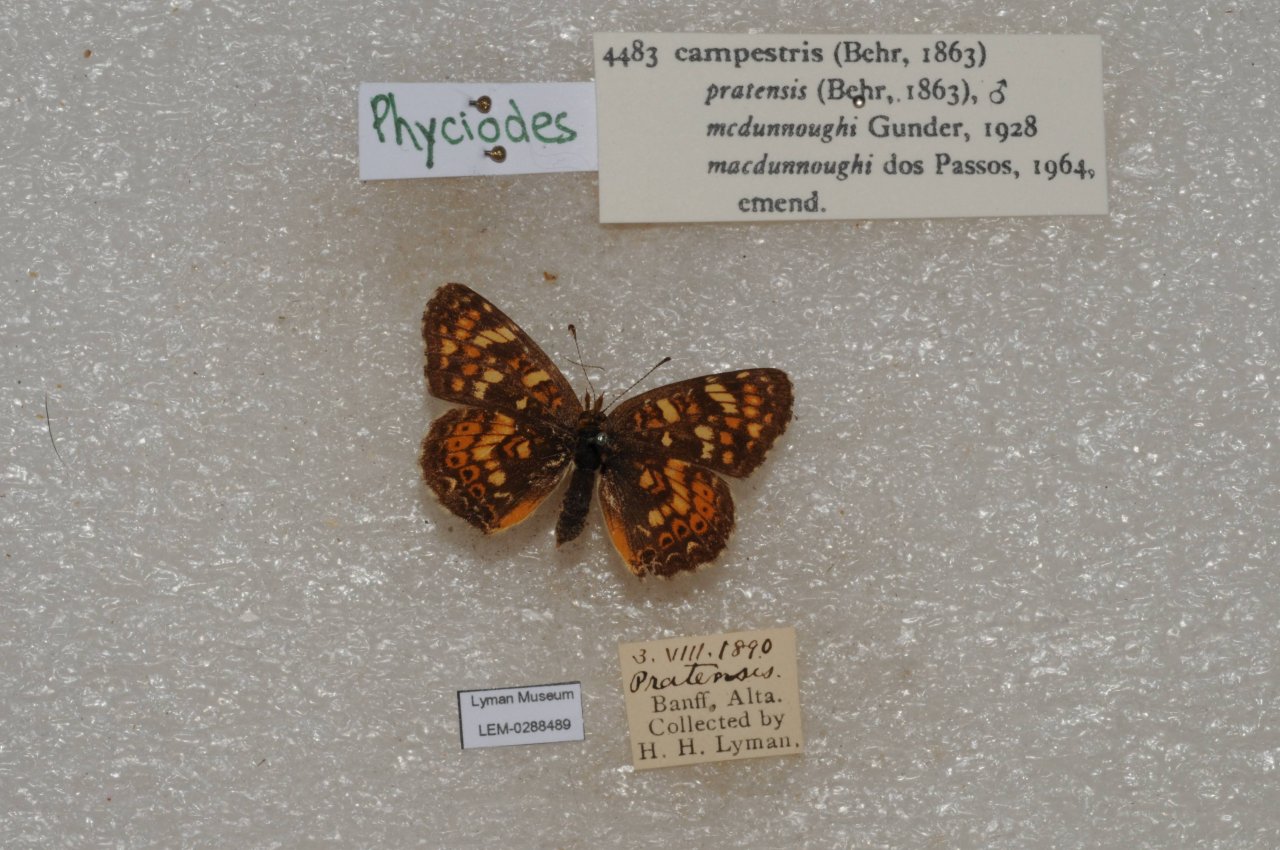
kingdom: Animalia
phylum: Arthropoda
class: Insecta
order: Lepidoptera
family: Nymphalidae
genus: Phyciodes
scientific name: Phyciodes tharos
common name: Field Crescent
